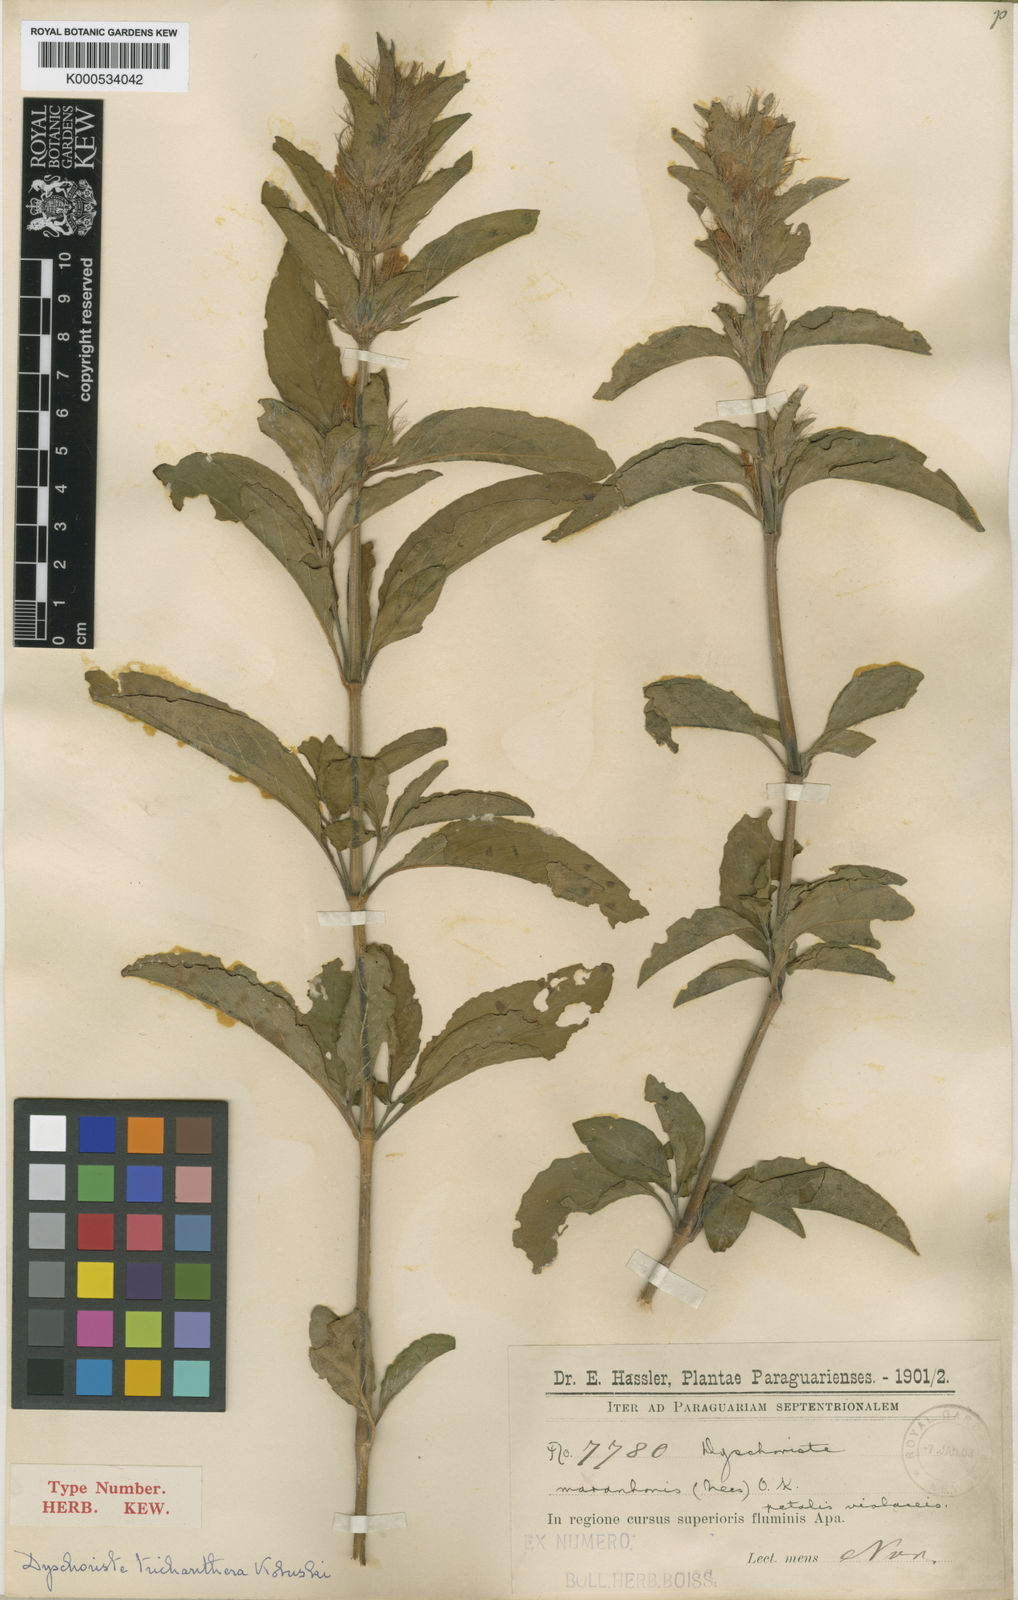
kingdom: Plantae
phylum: Tracheophyta
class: Magnoliopsida
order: Lamiales
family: Acanthaceae
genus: Dyschoriste
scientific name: Dyschoriste trichanthera
